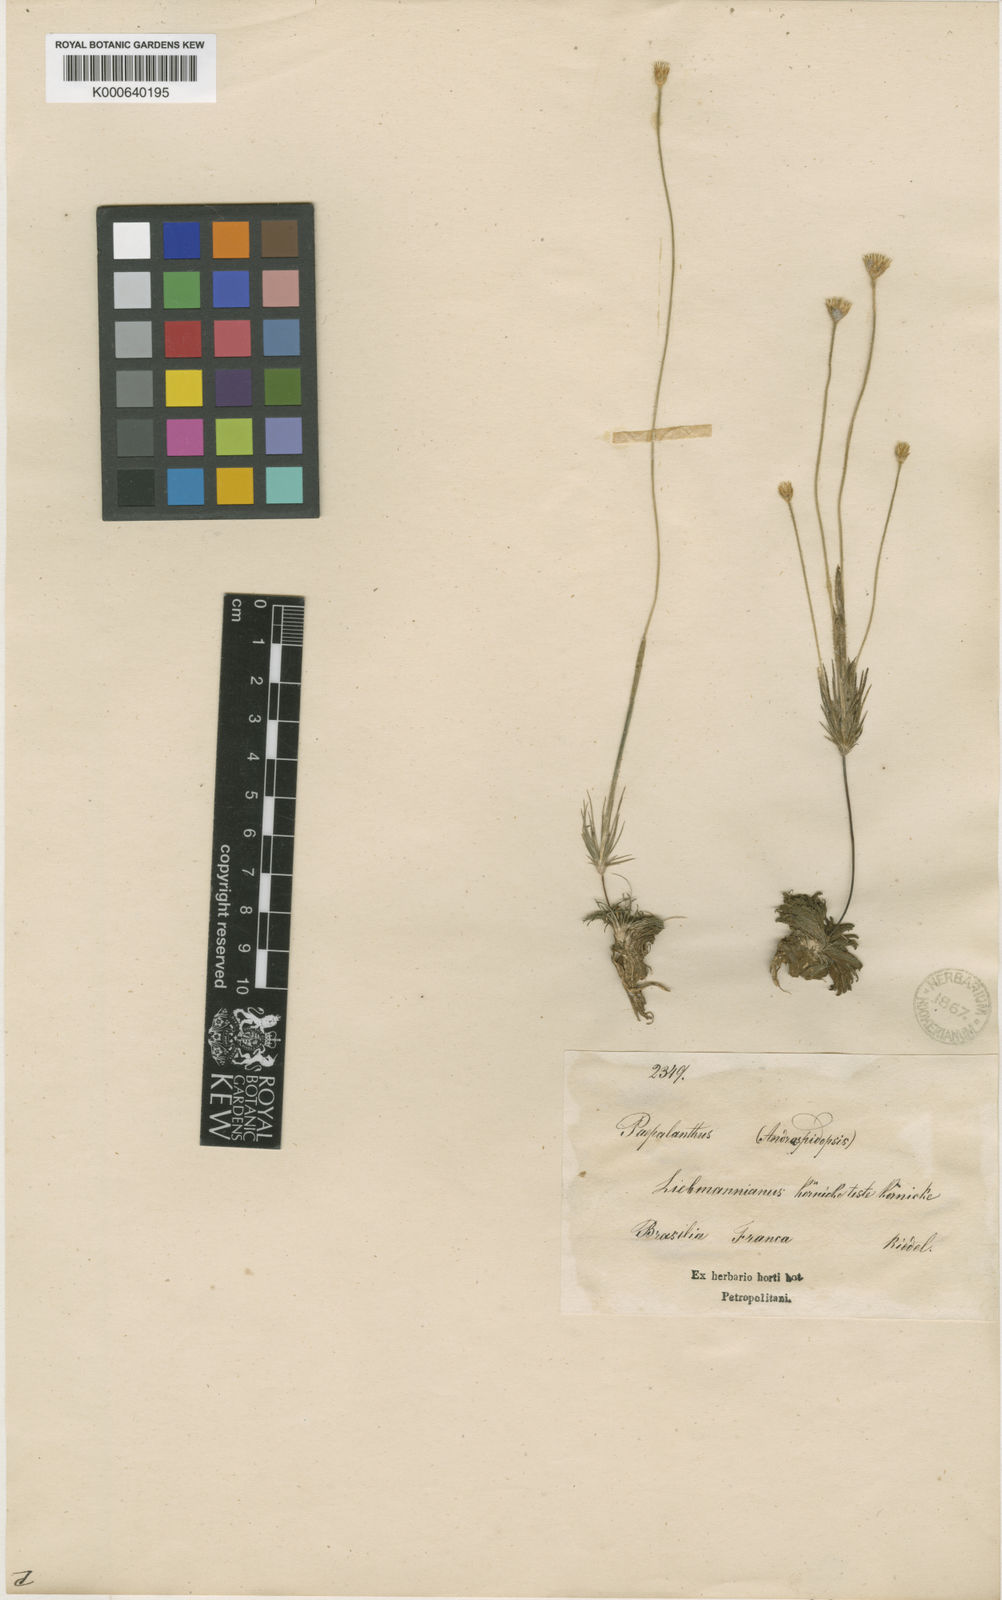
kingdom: Plantae
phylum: Tracheophyta
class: Liliopsida
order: Poales
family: Eriocaulaceae
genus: Syngonanthus
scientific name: Syngonanthus umbellatus
